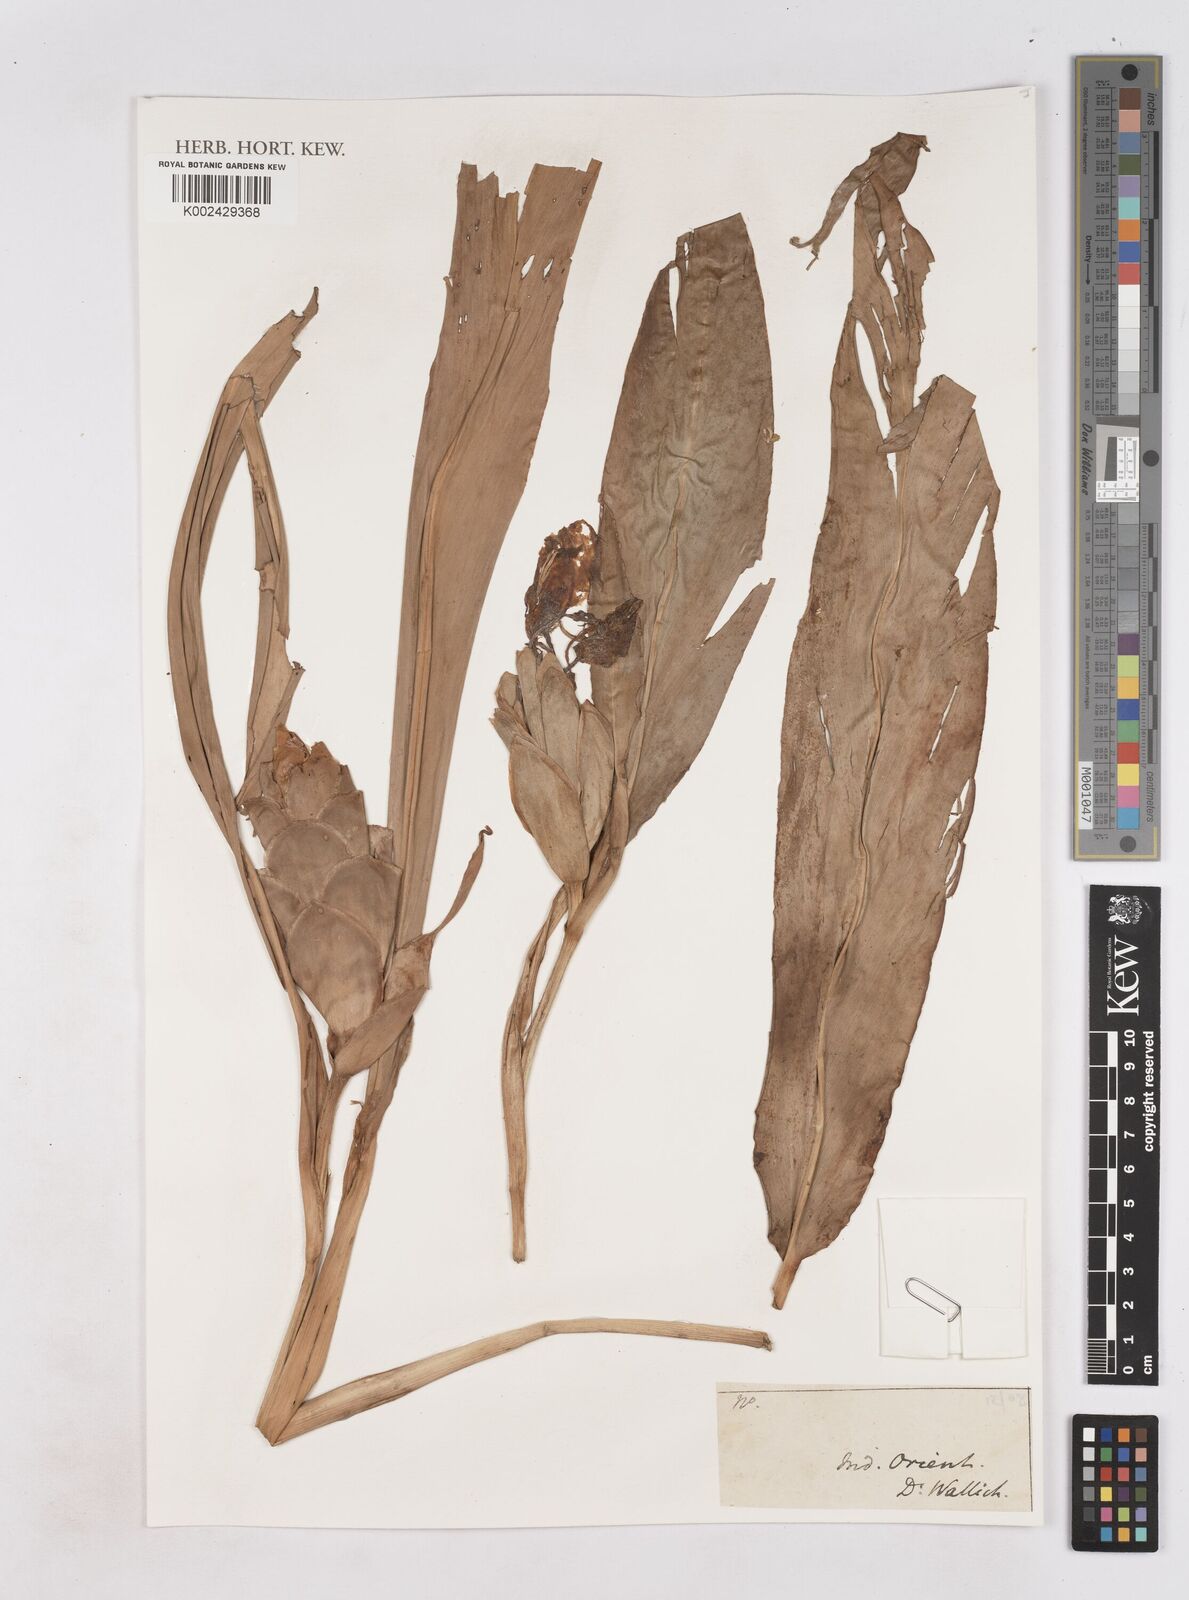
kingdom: Plantae
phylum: Tracheophyta
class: Liliopsida
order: Zingiberales
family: Zingiberaceae
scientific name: Zingiberaceae
